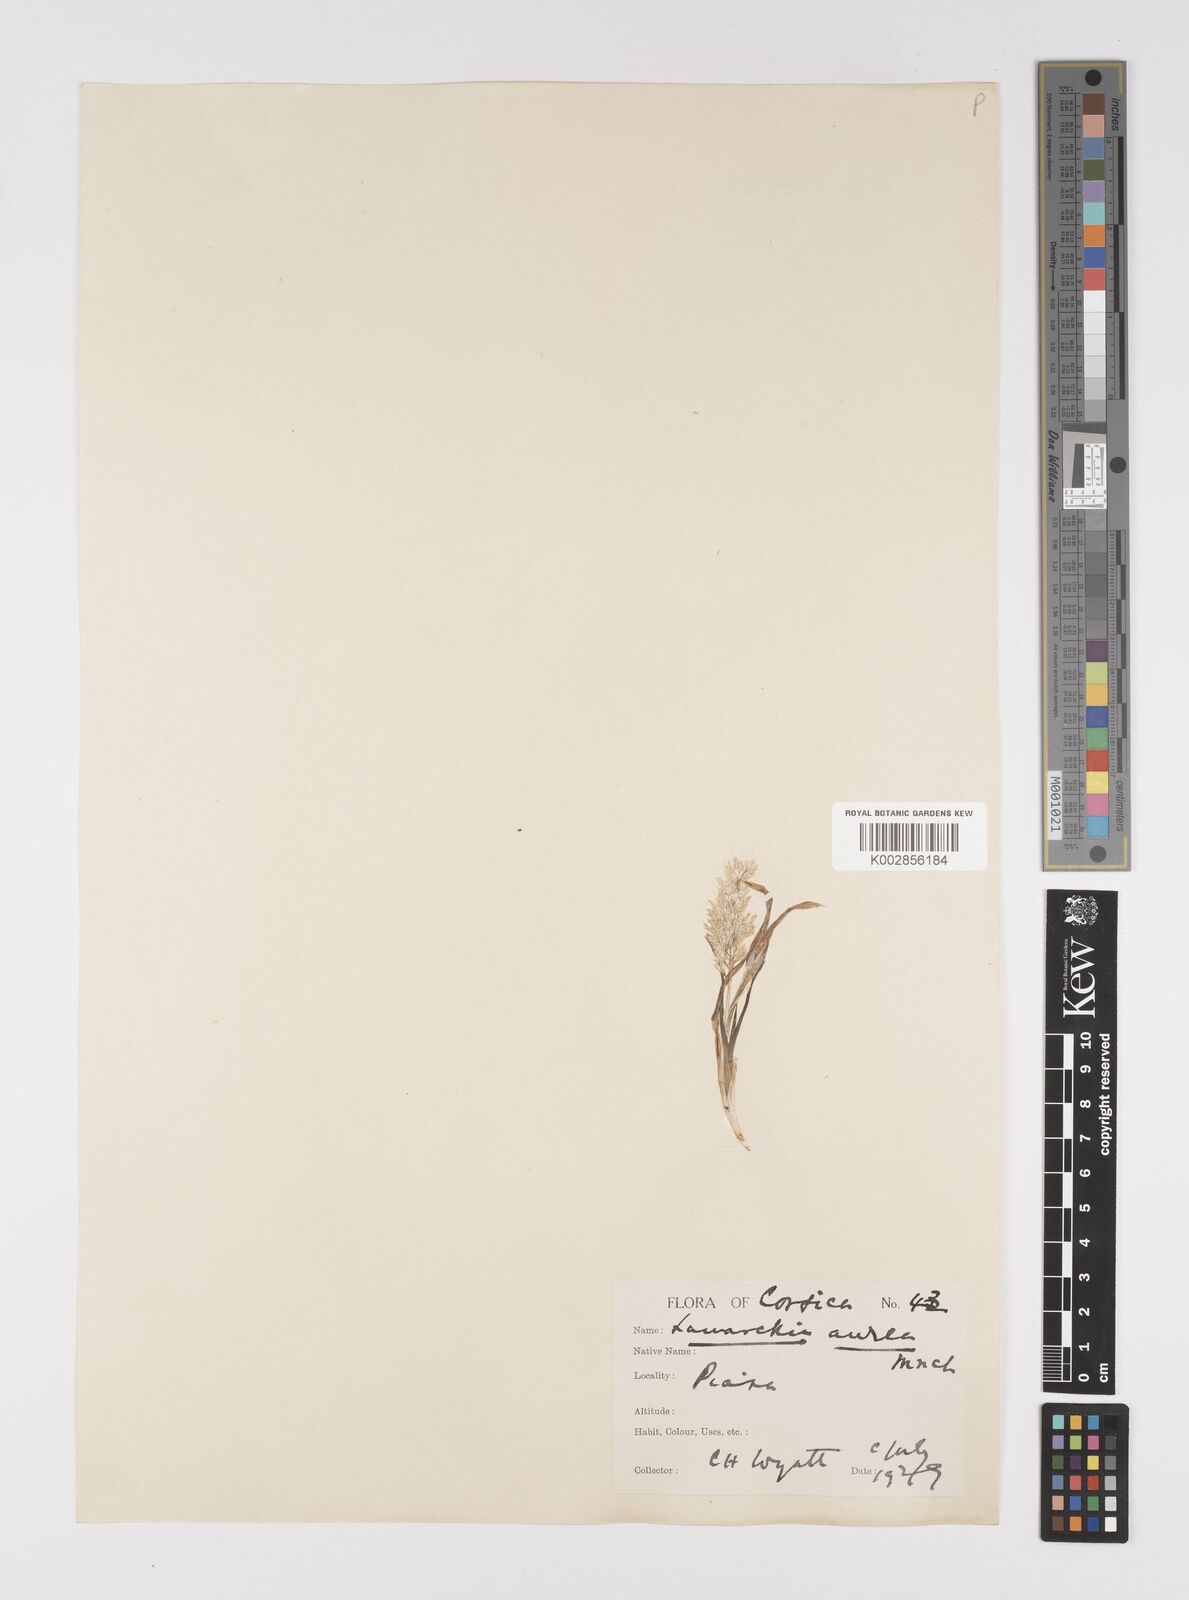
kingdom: Plantae
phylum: Tracheophyta
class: Liliopsida
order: Poales
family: Poaceae
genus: Lamarckia
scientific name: Lamarckia aurea
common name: Golden dog's-tail
